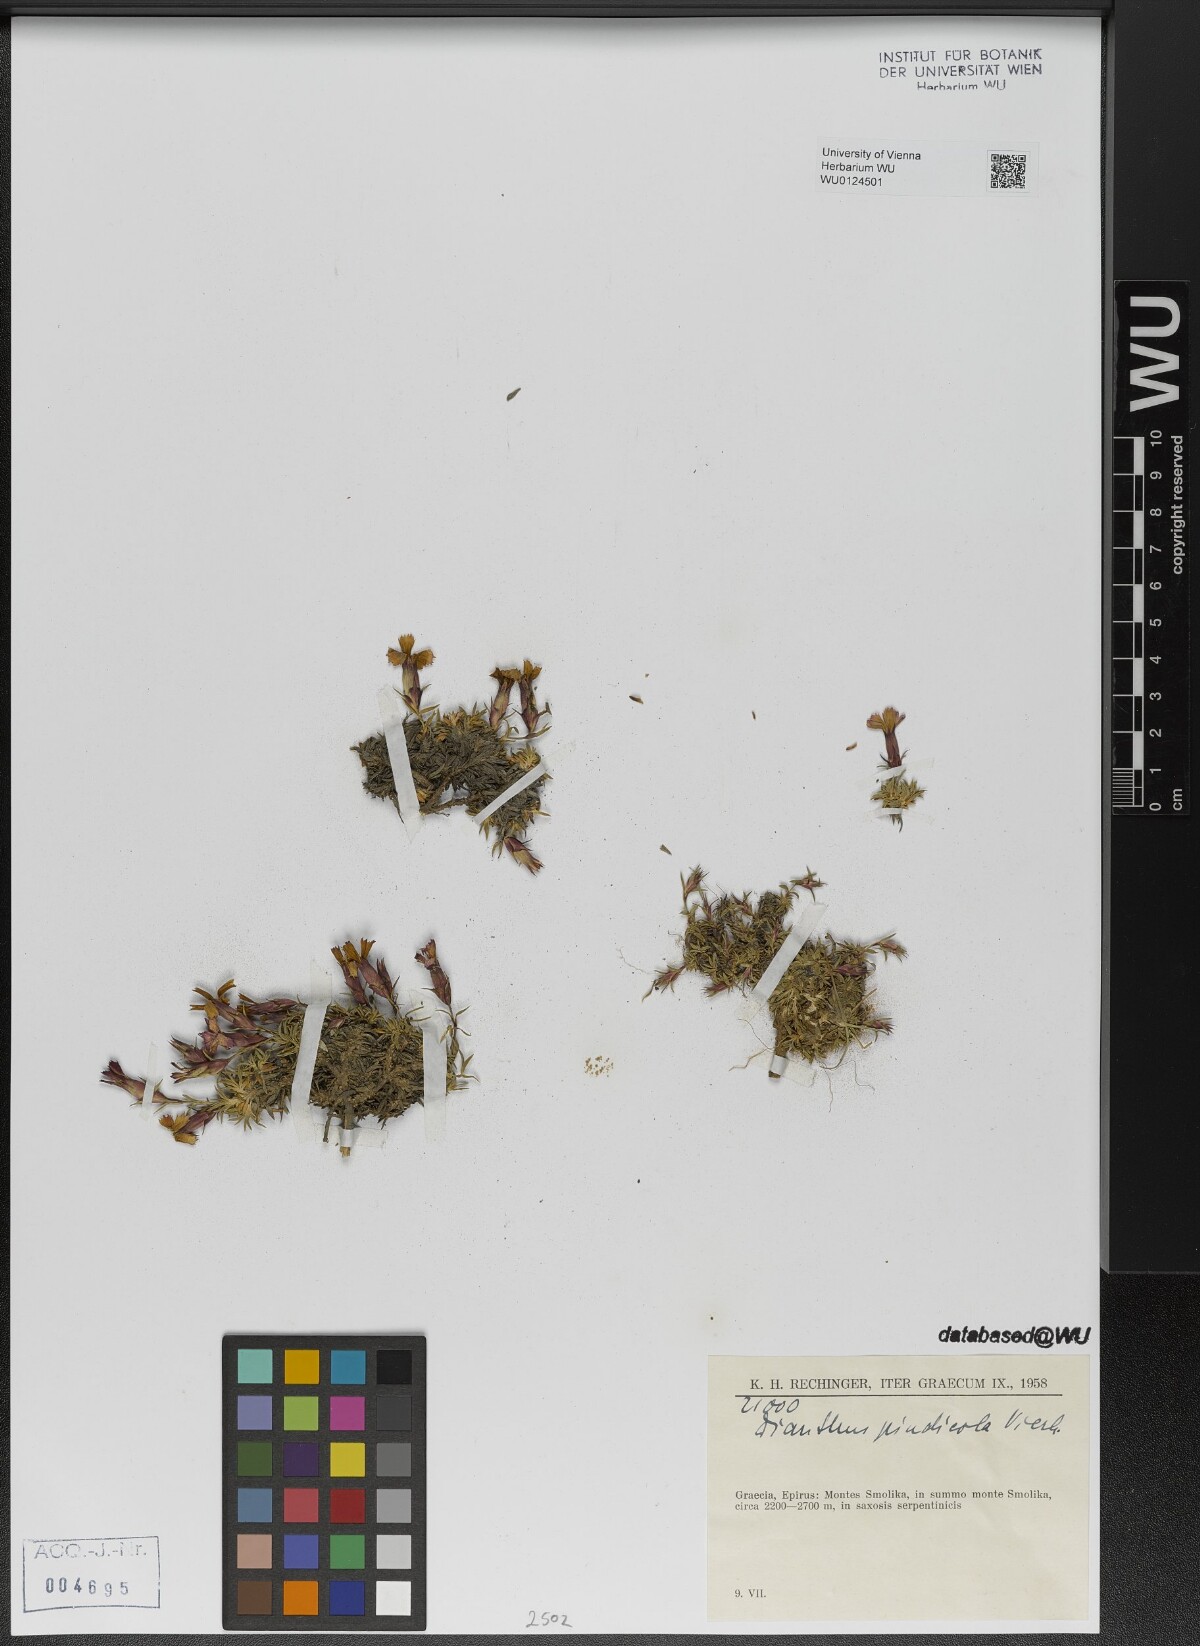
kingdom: Plantae
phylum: Tracheophyta
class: Magnoliopsida
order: Caryophyllales
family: Caryophyllaceae
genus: Dianthus
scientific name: Dianthus haematocalyx
